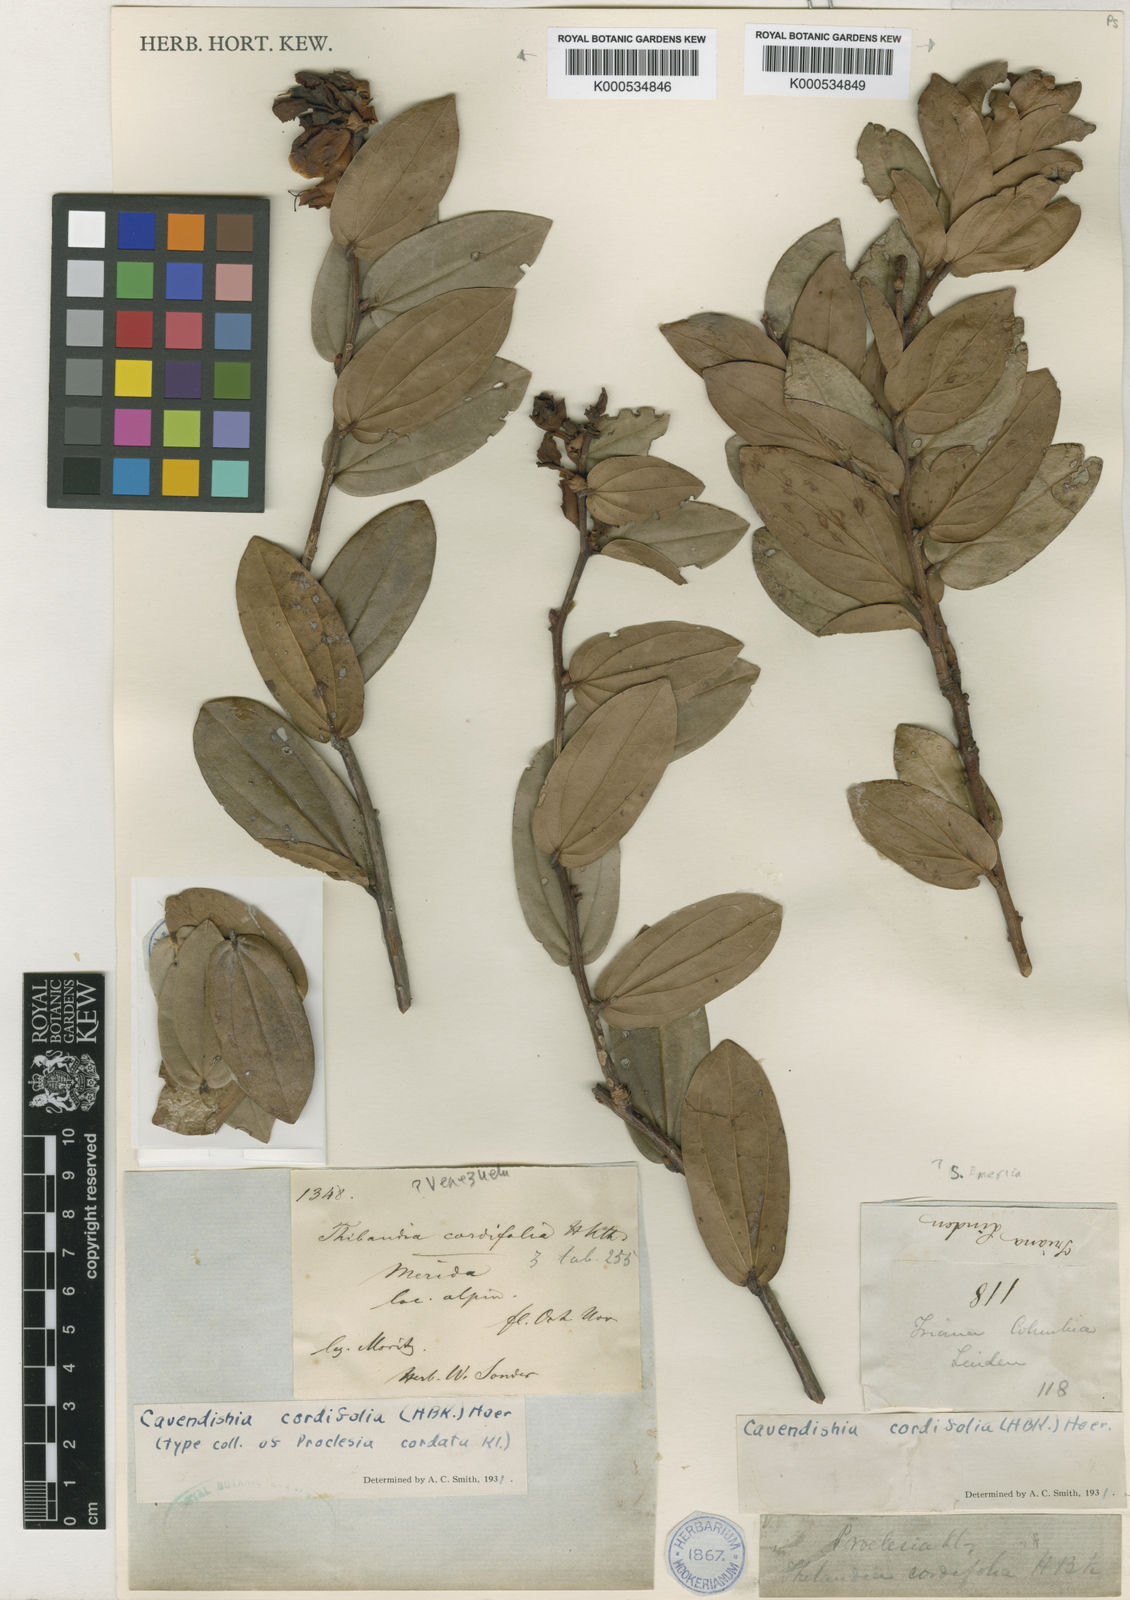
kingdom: Plantae
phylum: Tracheophyta
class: Magnoliopsida
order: Ericales
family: Ericaceae
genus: Cavendishia
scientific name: Cavendishia bracteata
